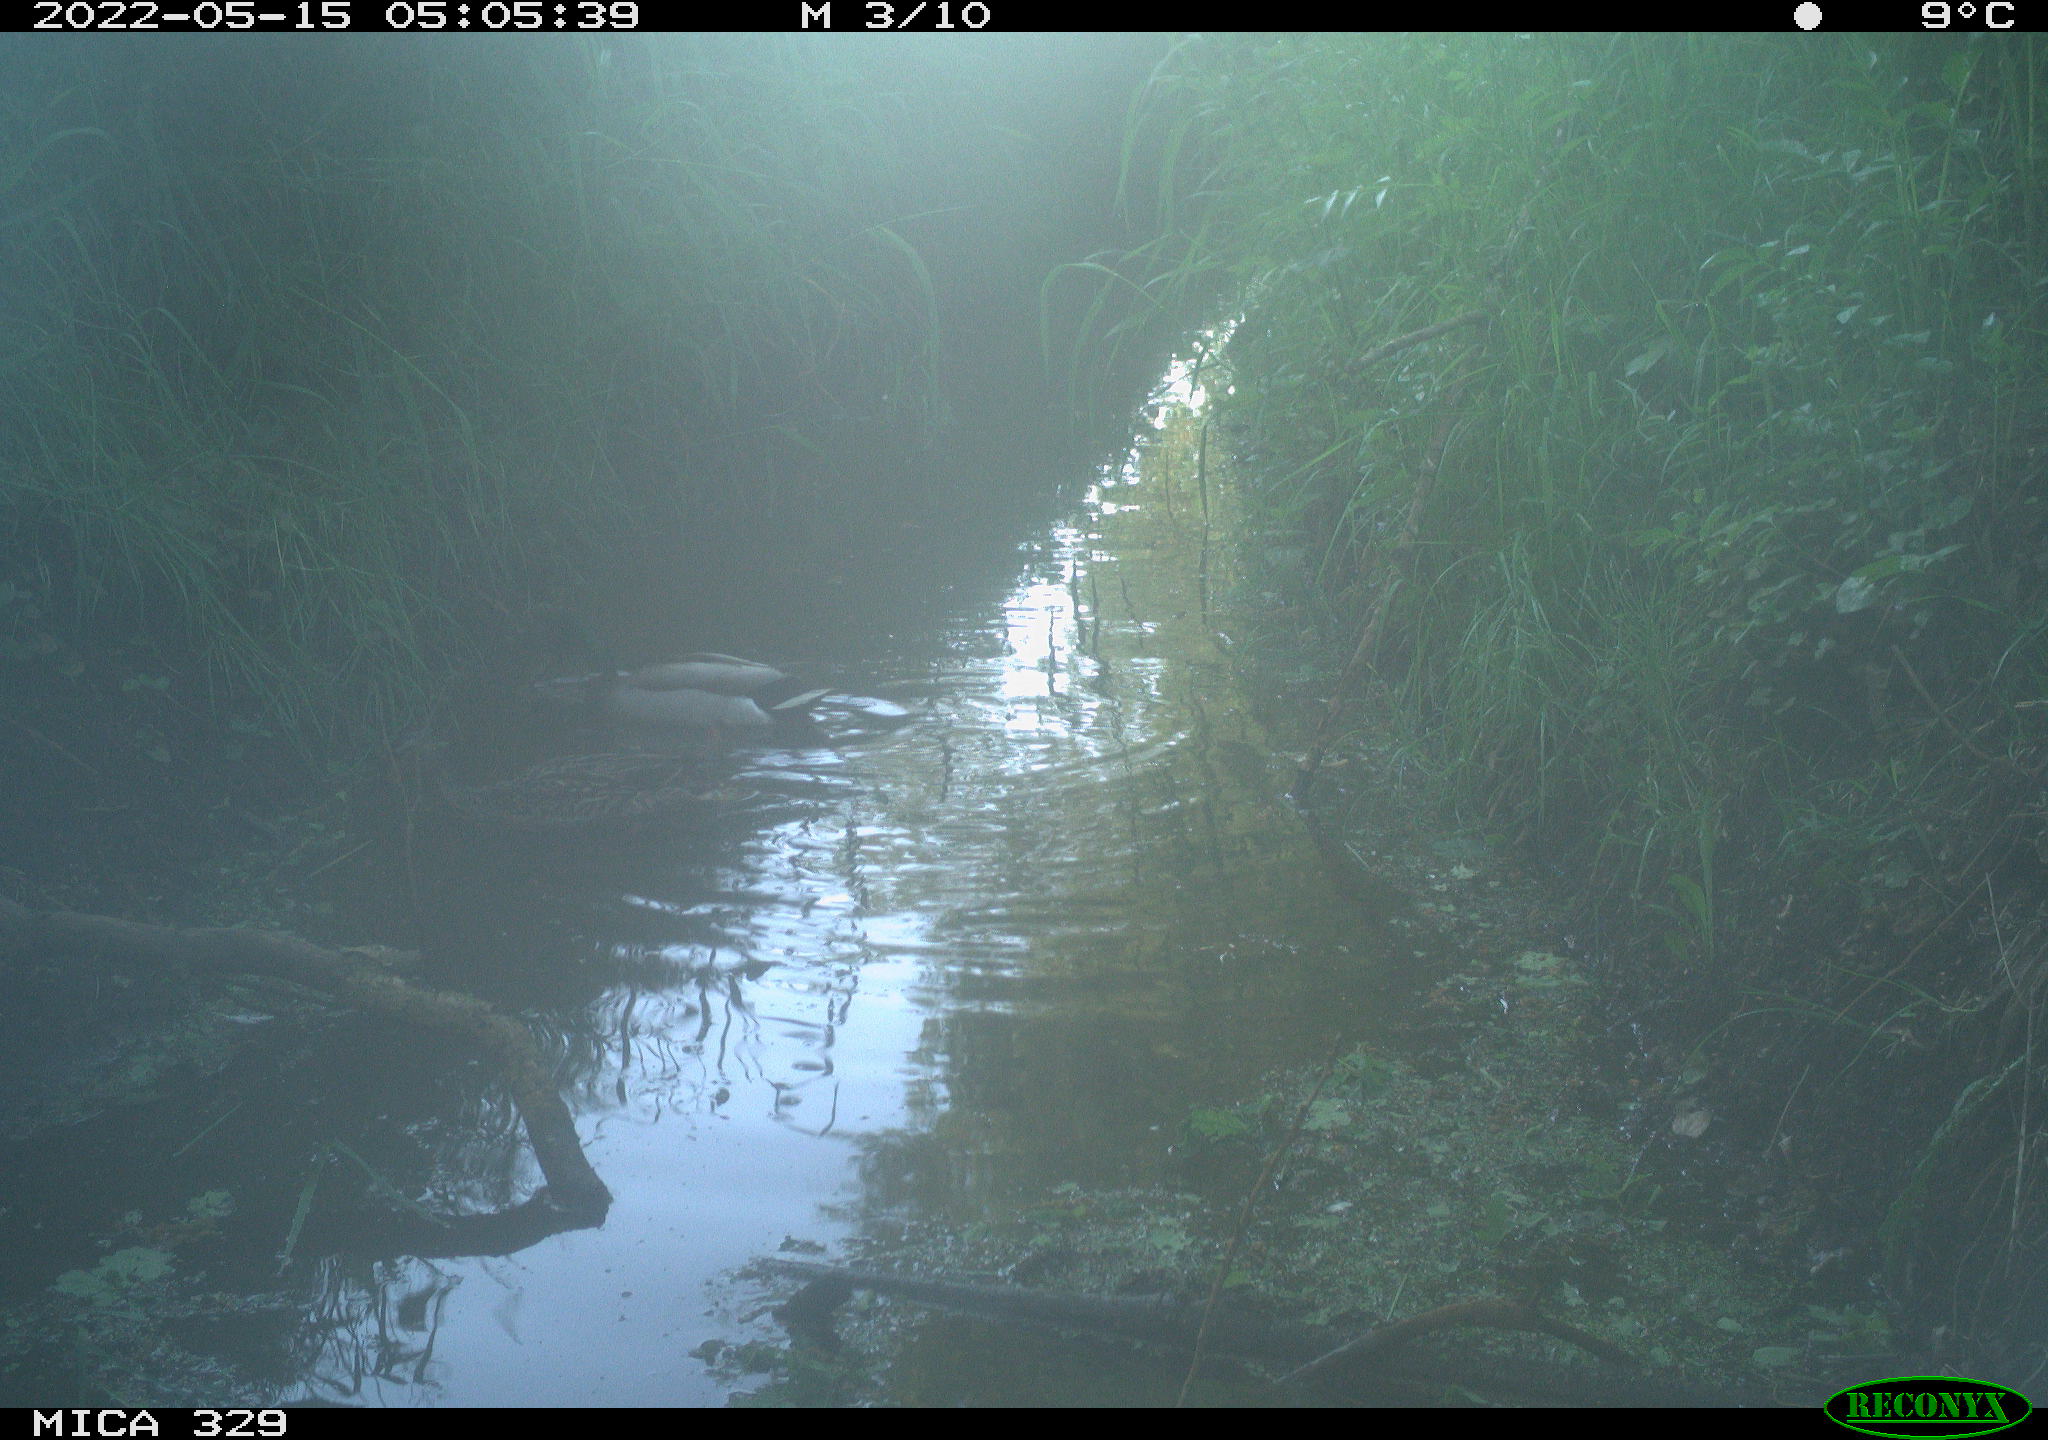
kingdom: Animalia
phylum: Chordata
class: Aves
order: Anseriformes
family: Anatidae
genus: Anas
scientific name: Anas platyrhynchos
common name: Mallard
